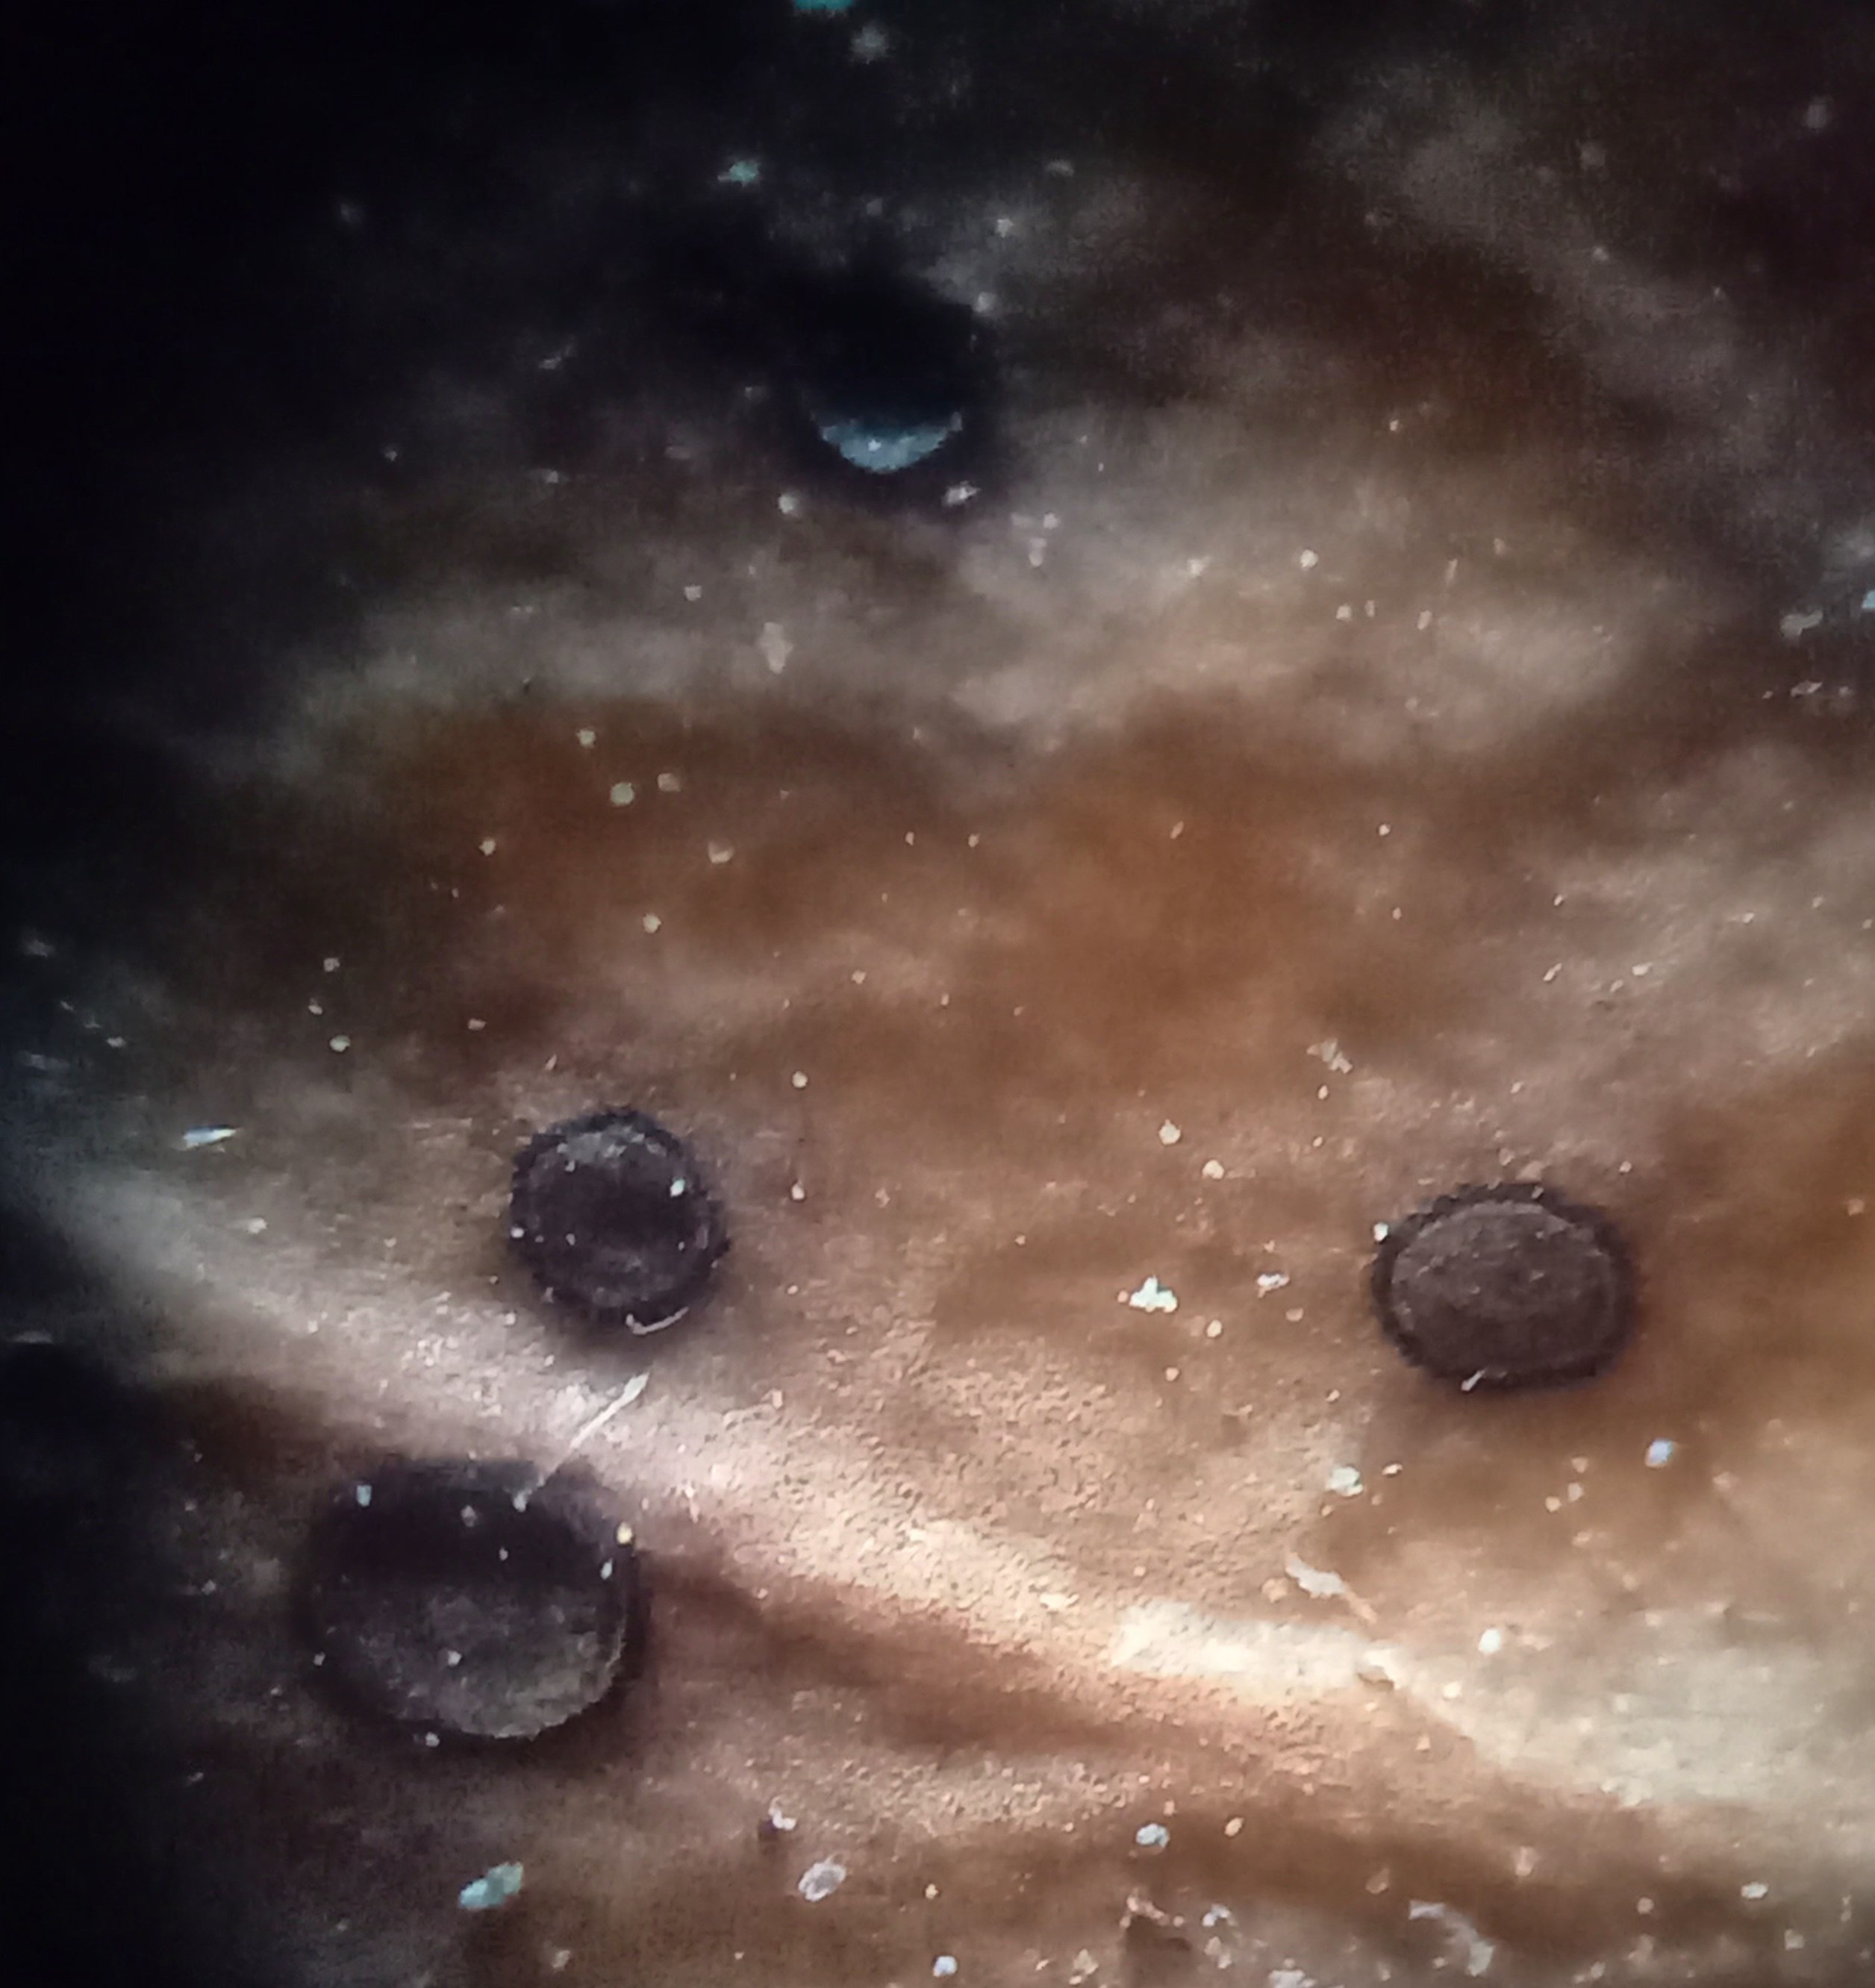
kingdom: Fungi
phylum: Ascomycota
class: Leotiomycetes
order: Helotiales
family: Cenangiaceae
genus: Trochila
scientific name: Trochila ilicina
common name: kristtorn-lågskive
